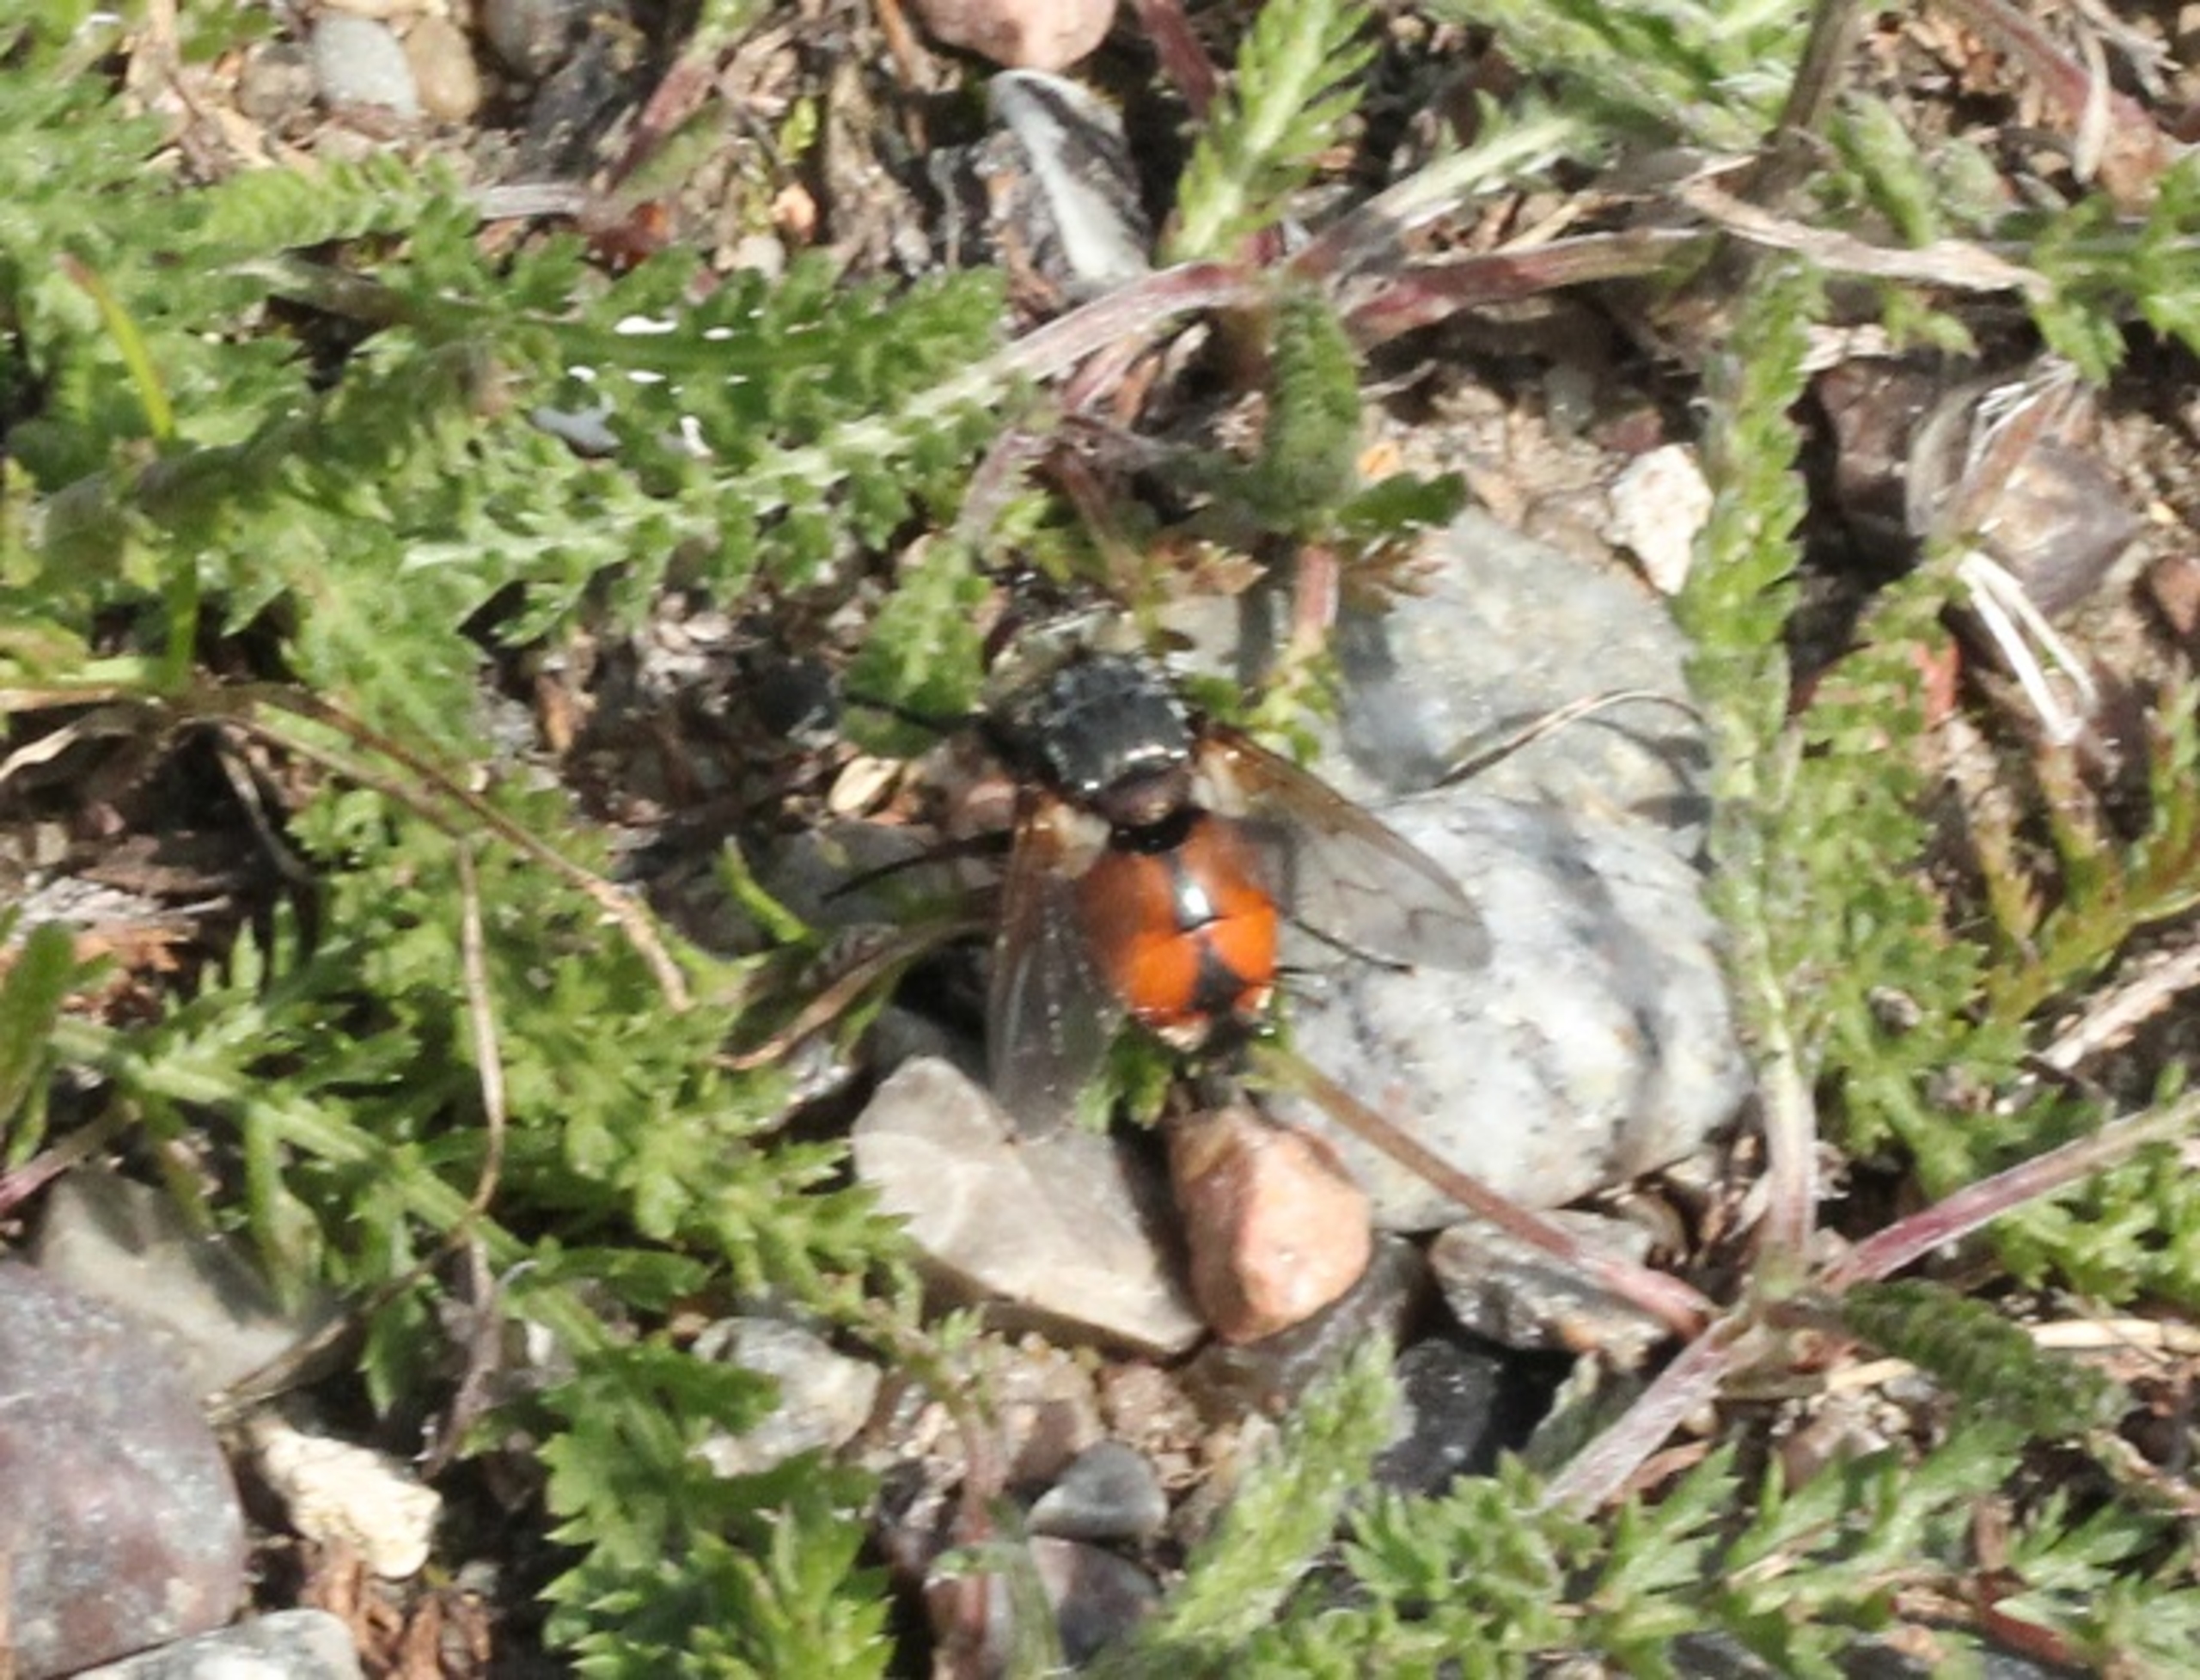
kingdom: Animalia
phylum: Arthropoda
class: Insecta
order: Diptera
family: Tachinidae
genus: Peleteria
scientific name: Peleteria rubescens
